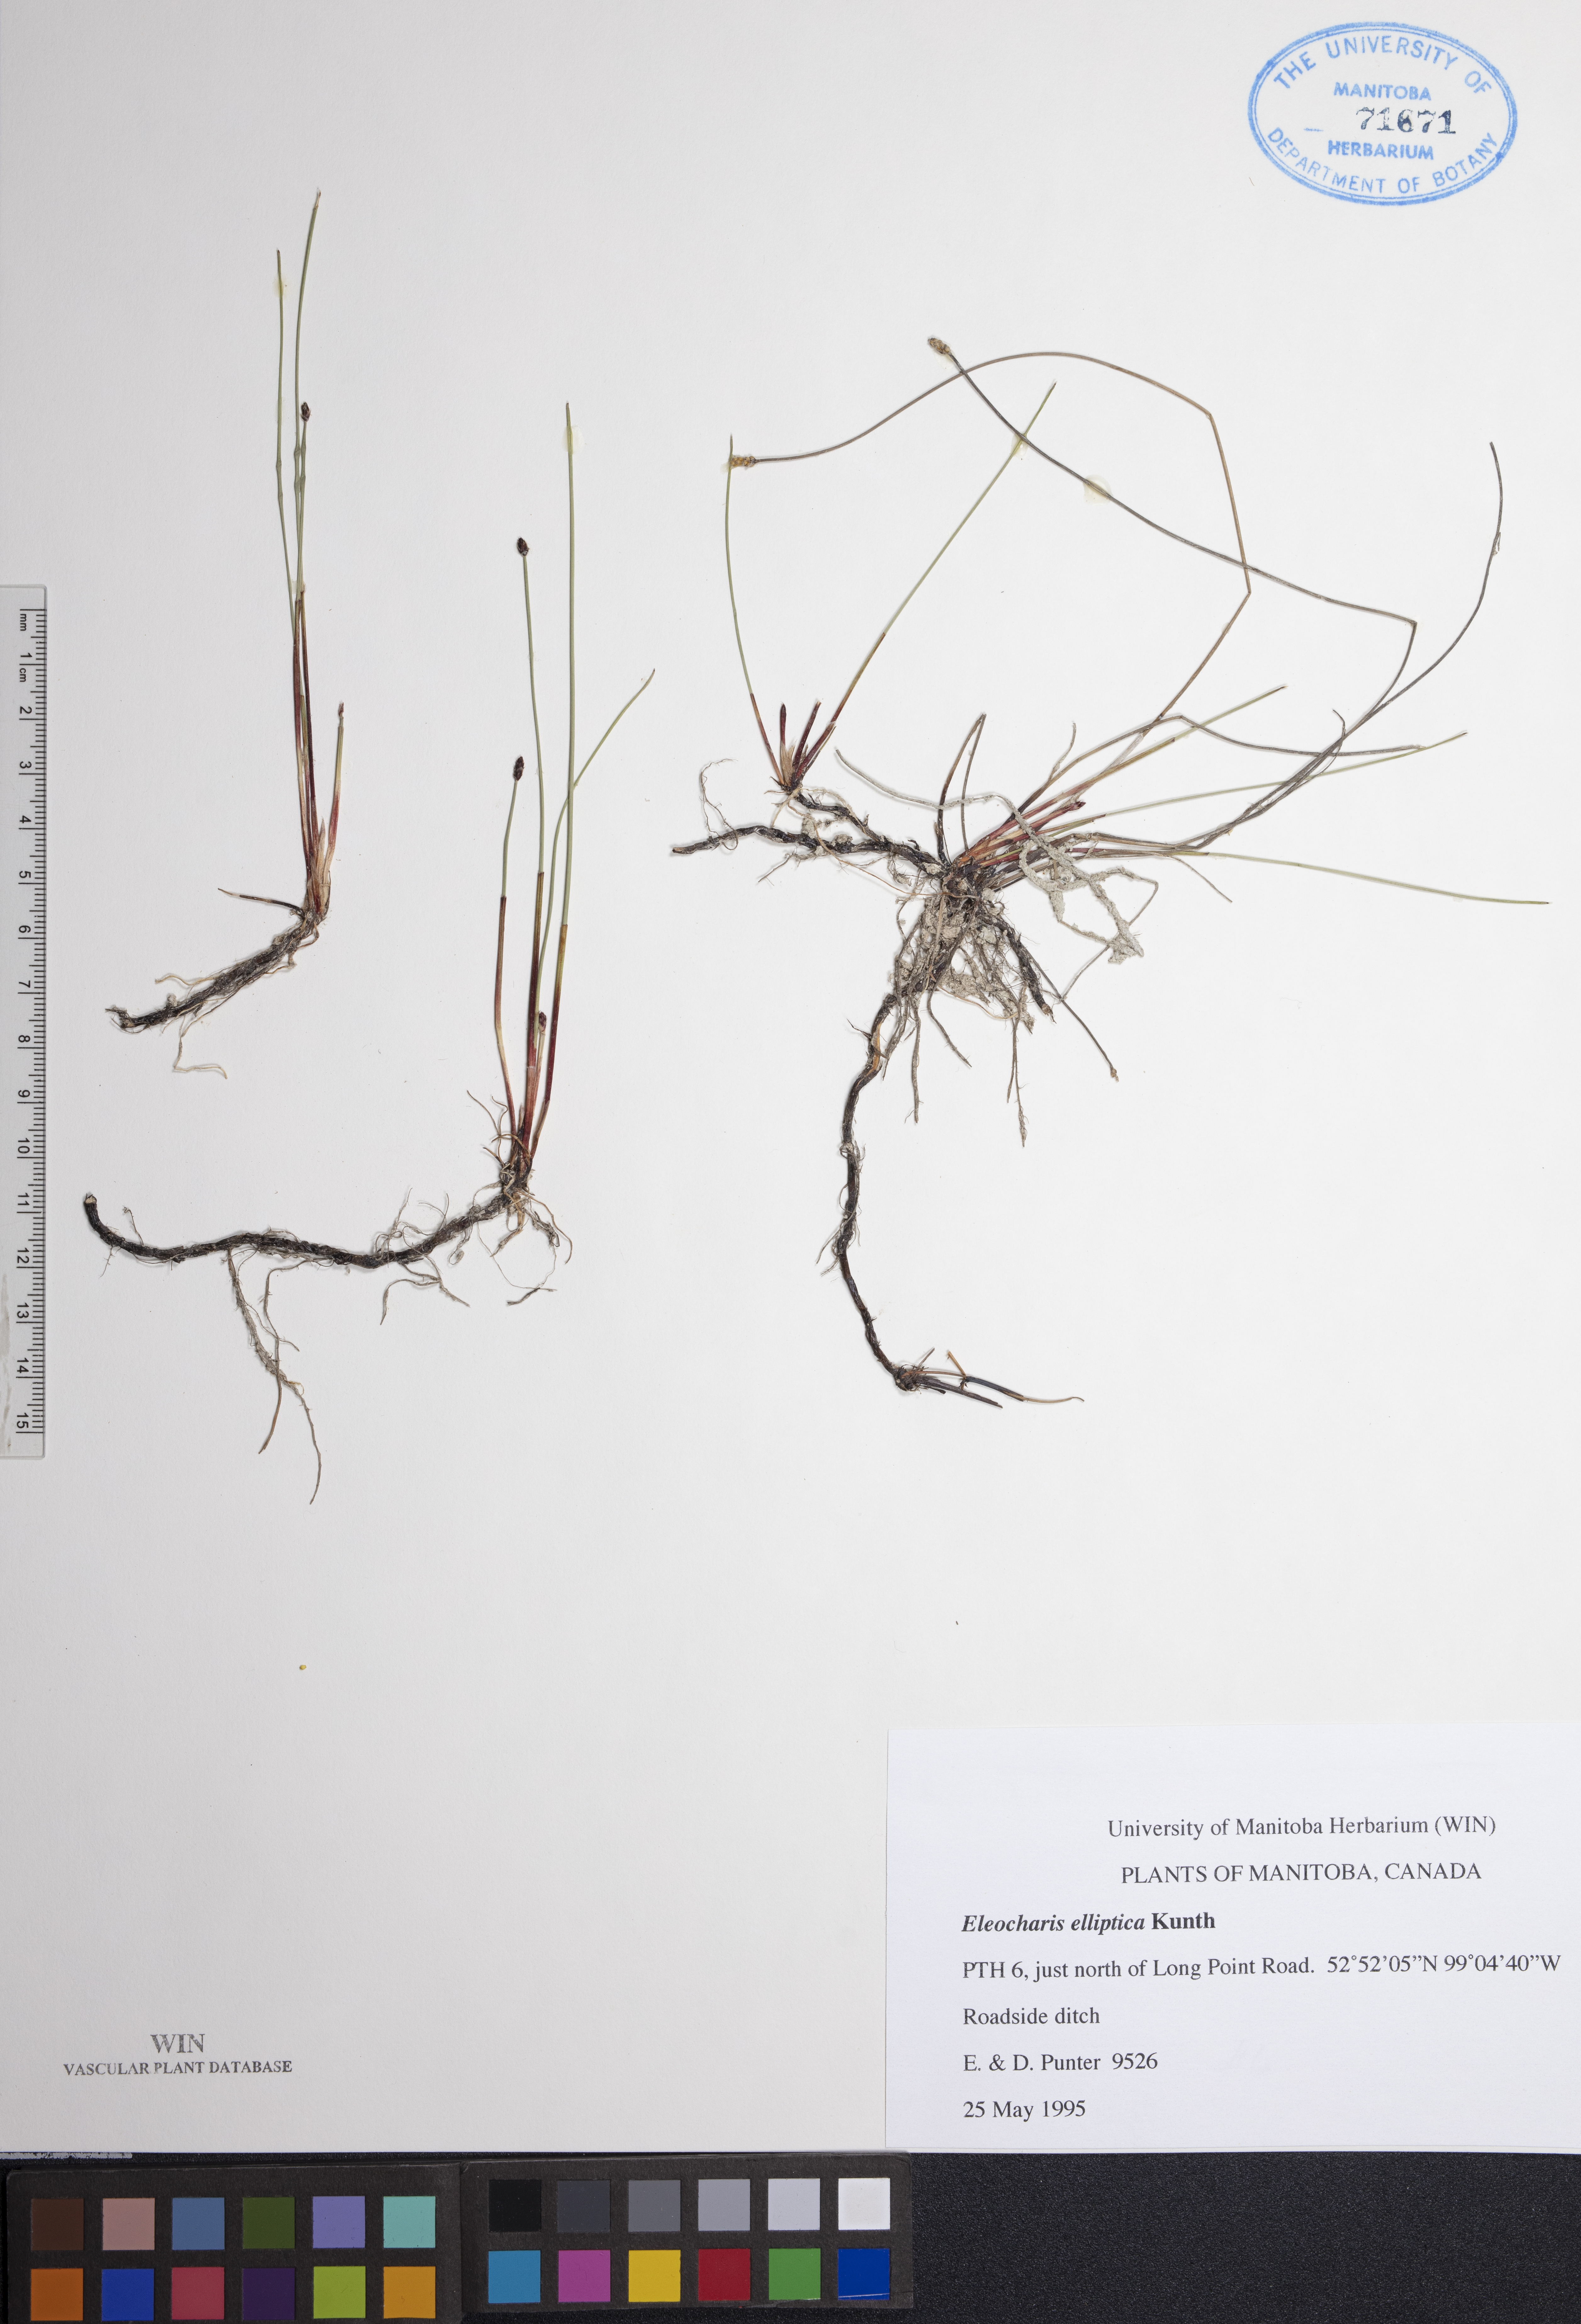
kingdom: Plantae
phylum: Tracheophyta
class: Liliopsida
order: Poales
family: Cyperaceae
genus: Eleocharis
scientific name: Eleocharis elliptica
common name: Capitate spikerush
